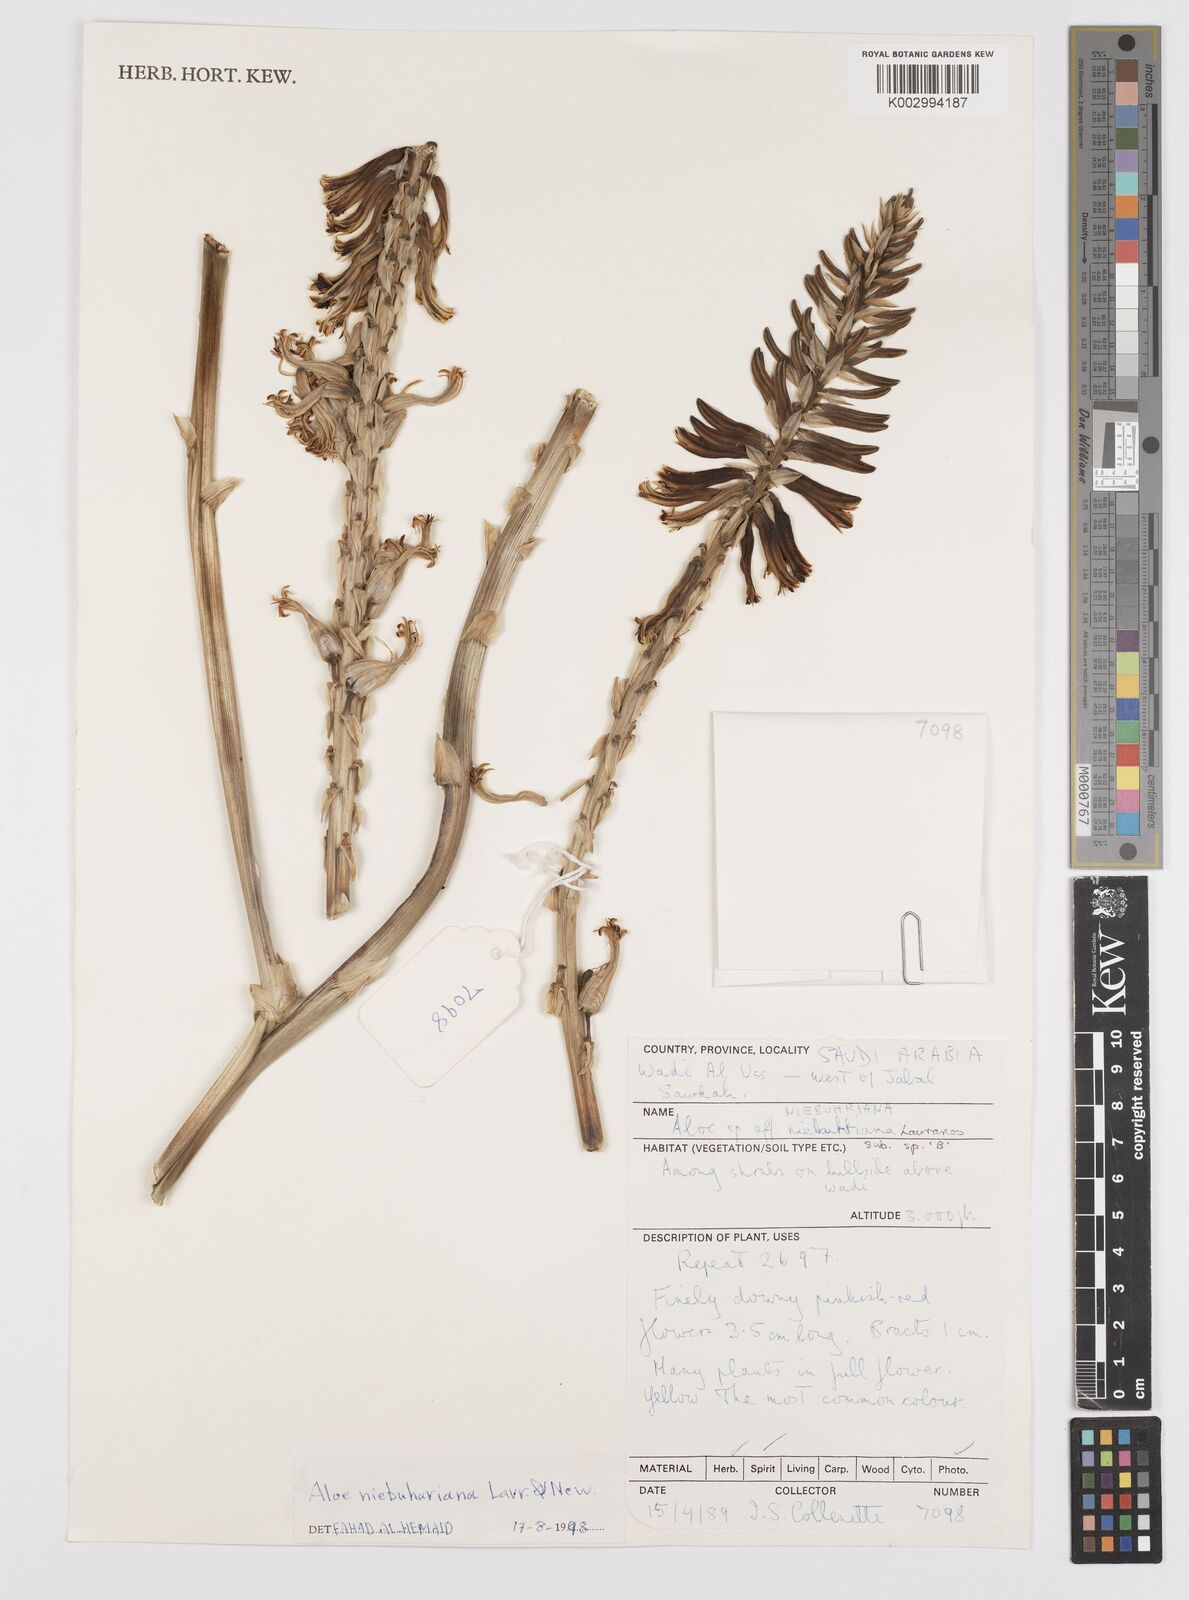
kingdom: Plantae
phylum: Tracheophyta
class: Liliopsida
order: Asparagales
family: Asphodelaceae
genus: Aloe
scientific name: Aloe niebuhriana
